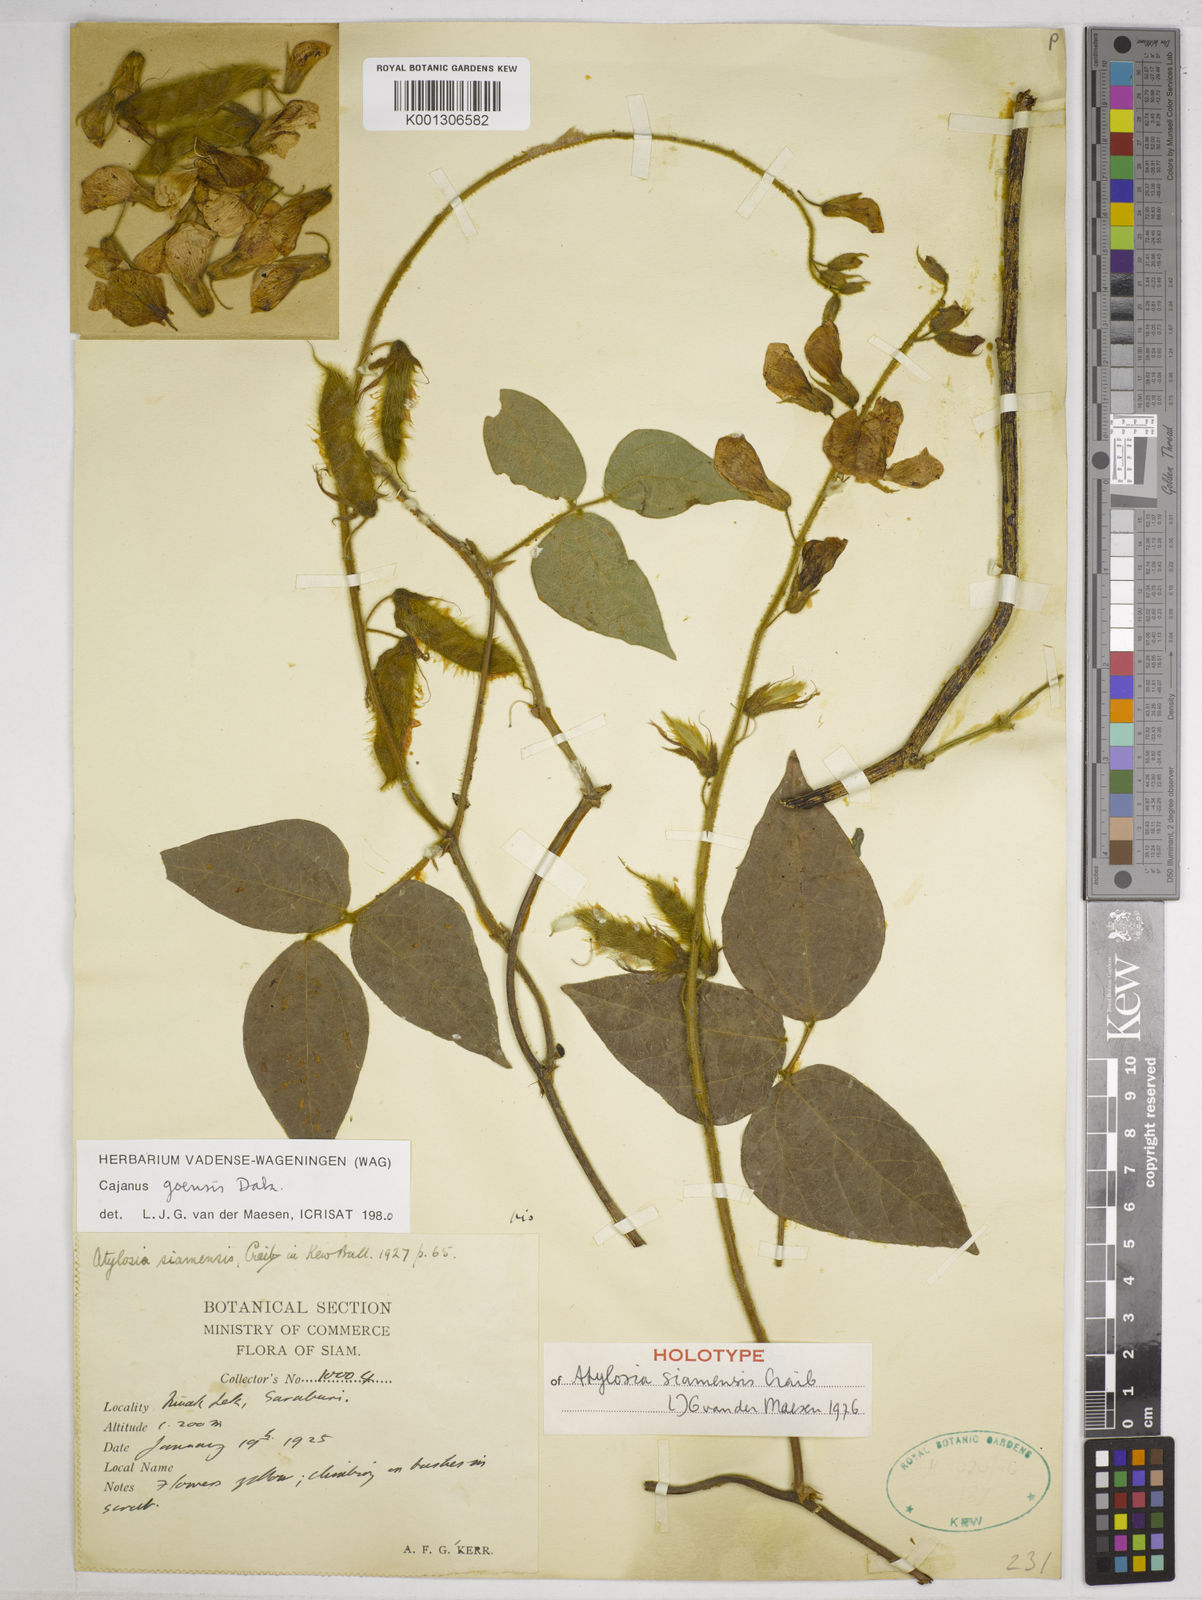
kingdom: Plantae
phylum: Tracheophyta
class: Magnoliopsida
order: Fabales
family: Fabaceae
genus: Cajanus
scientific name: Cajanus goensis
